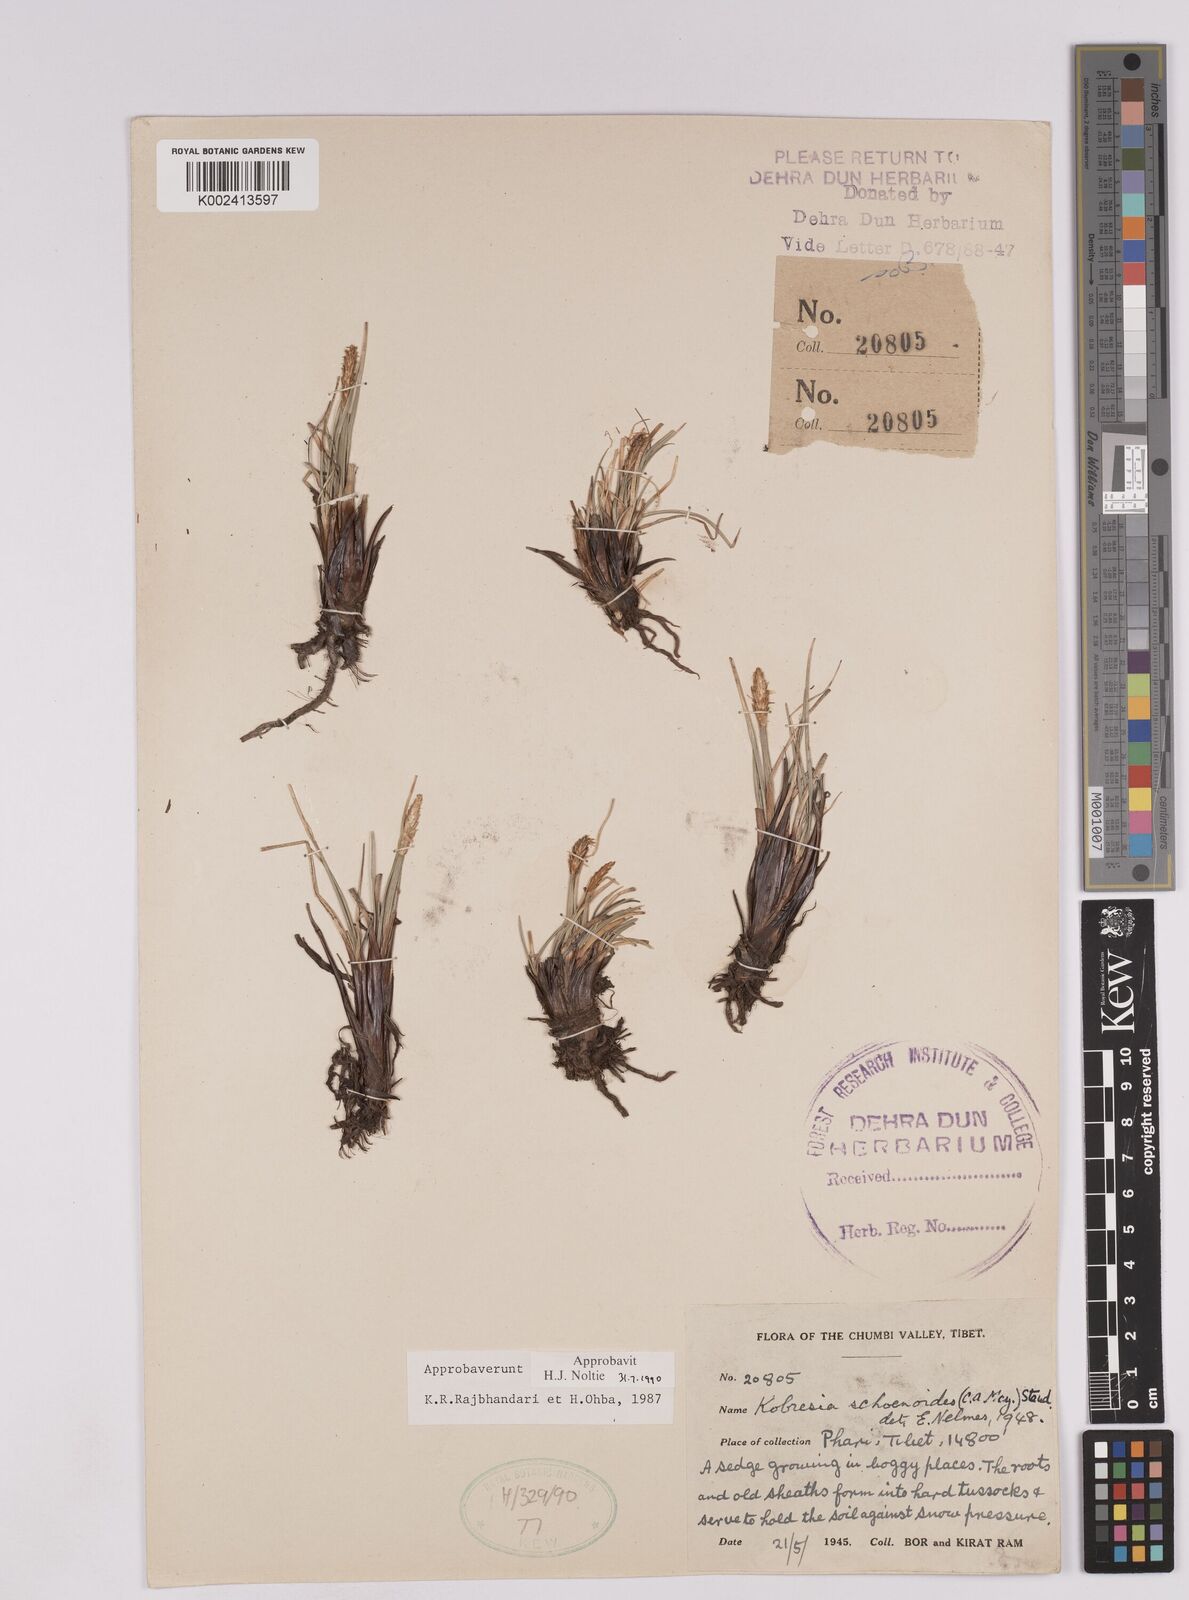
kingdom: Plantae
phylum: Tracheophyta
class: Liliopsida
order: Poales
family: Cyperaceae
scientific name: Cyperaceae
